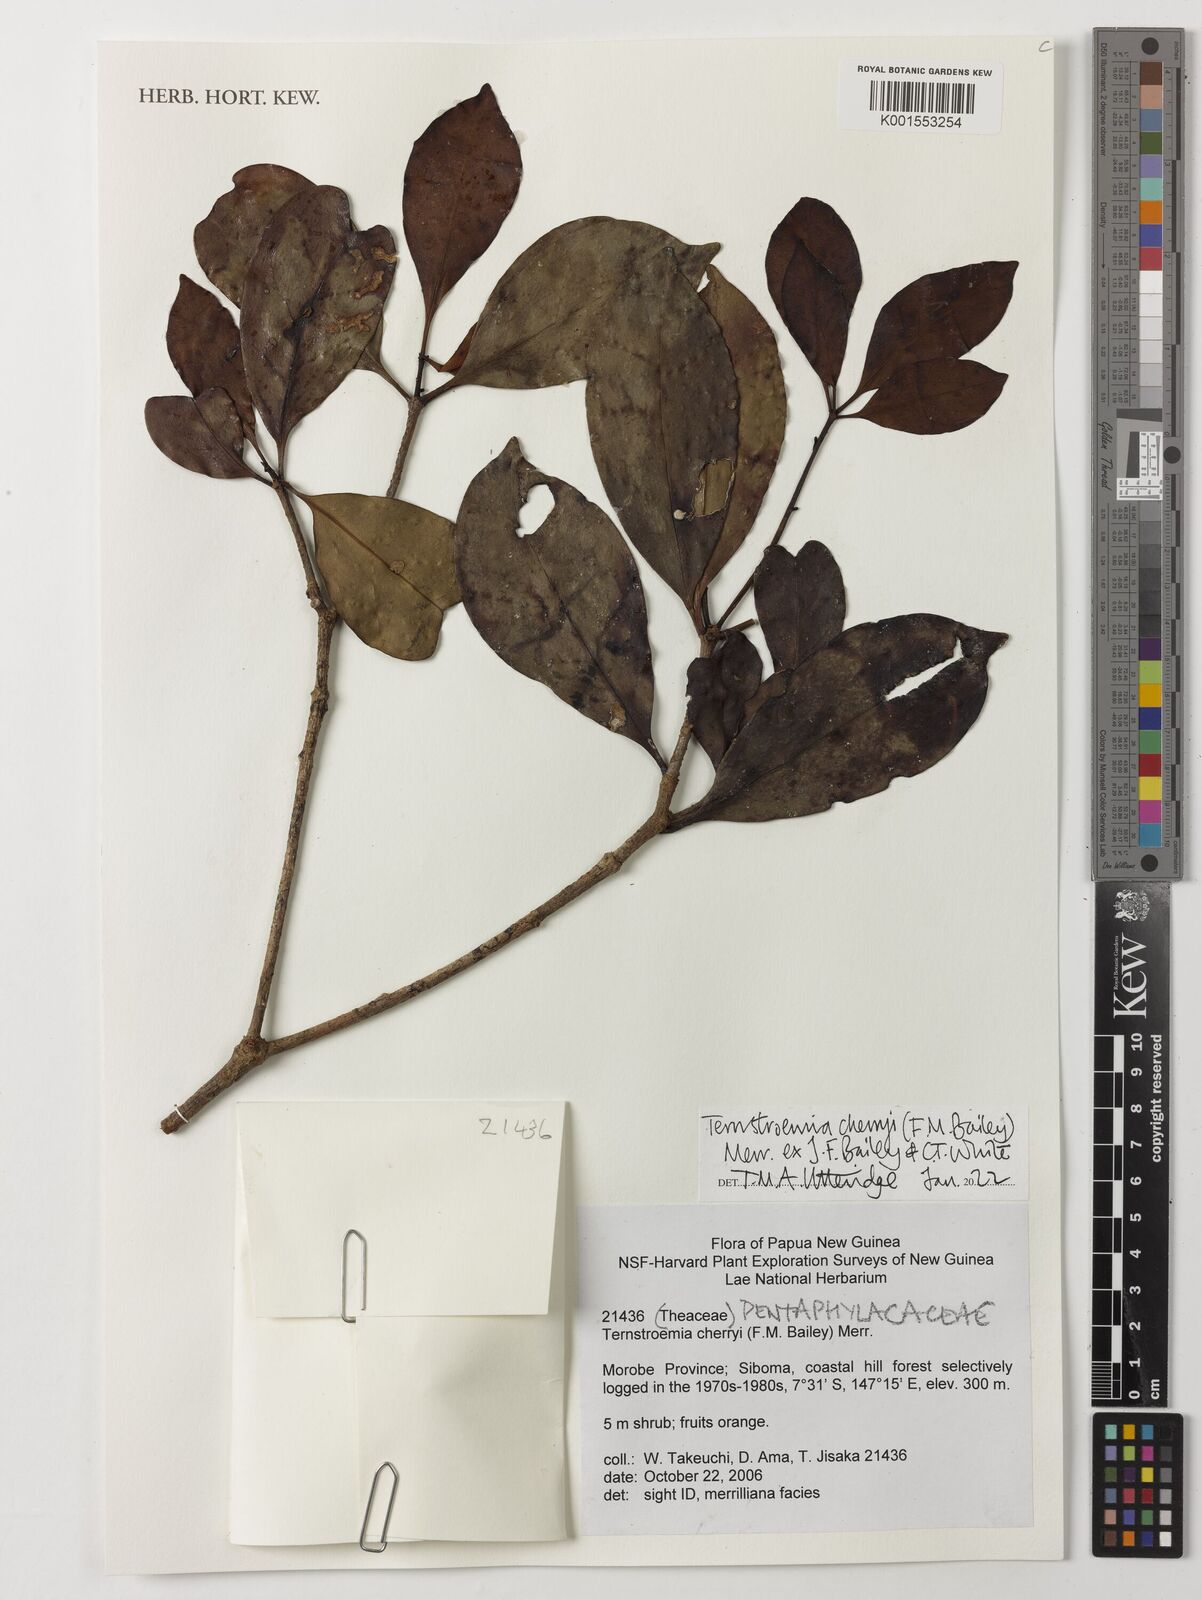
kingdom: Plantae
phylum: Tracheophyta
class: Magnoliopsida
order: Ericales
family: Pentaphylacaceae
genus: Ternstroemia
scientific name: Ternstroemia cherryi
